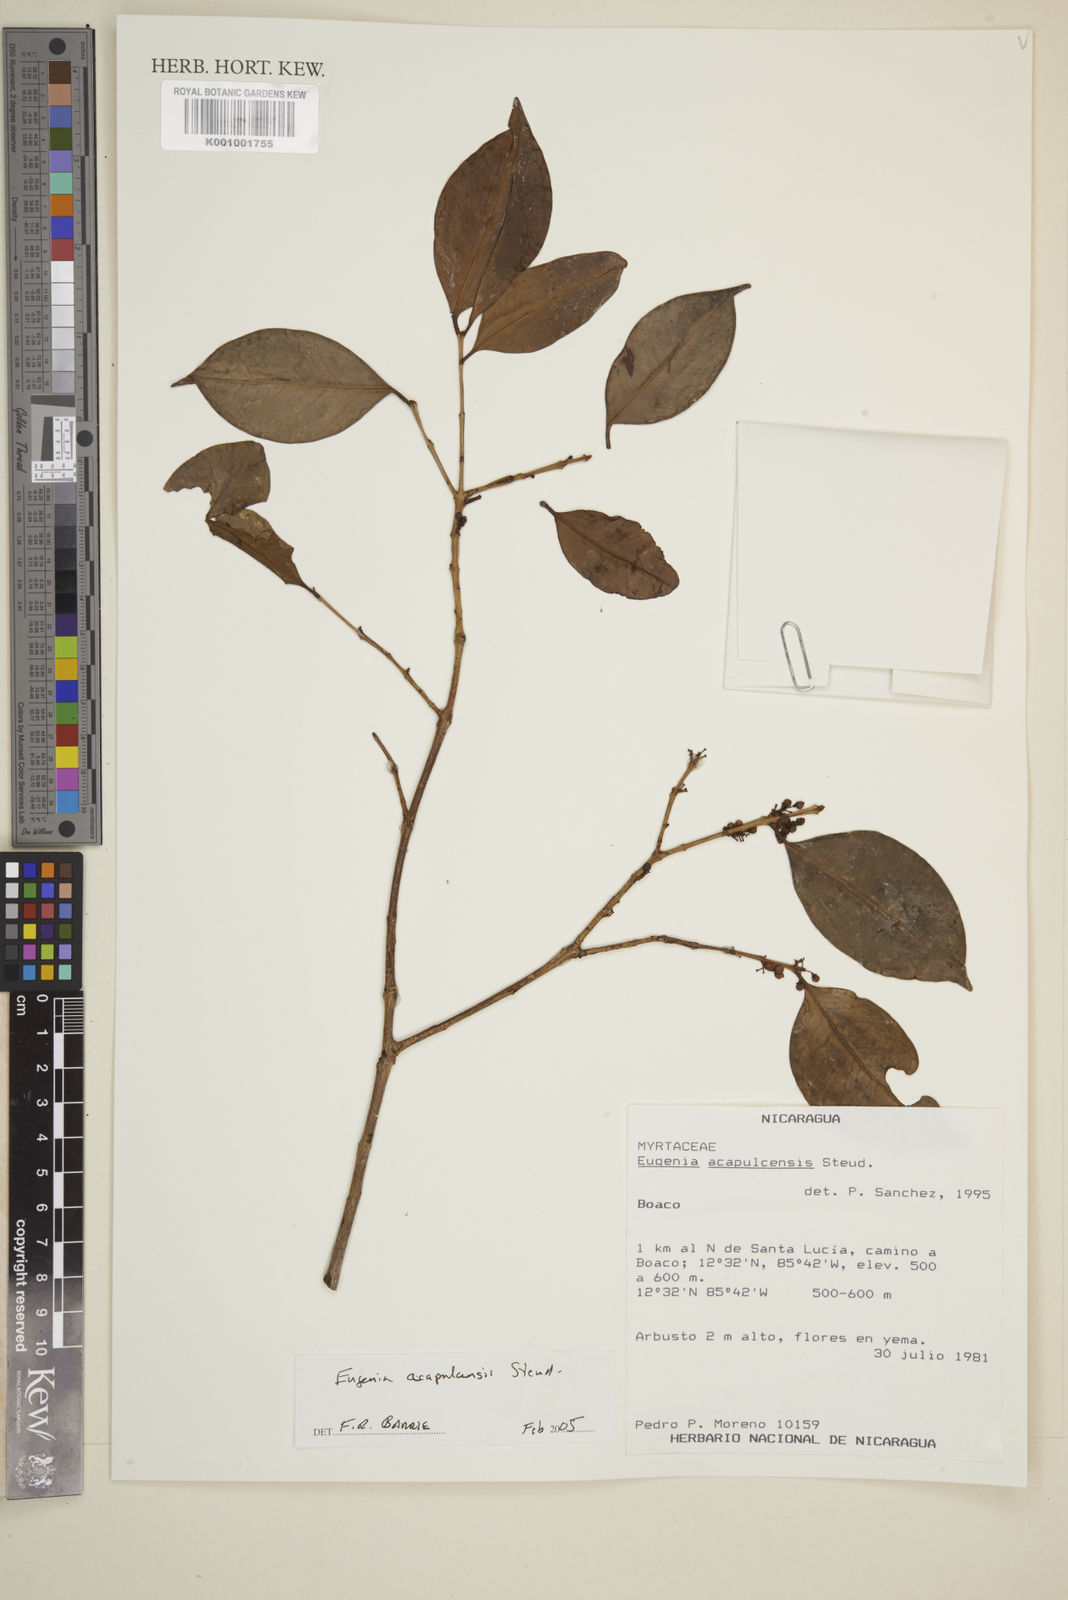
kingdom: Plantae
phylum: Tracheophyta
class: Magnoliopsida
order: Myrtales
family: Myrtaceae
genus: Eugenia
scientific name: Eugenia acapulcensis
